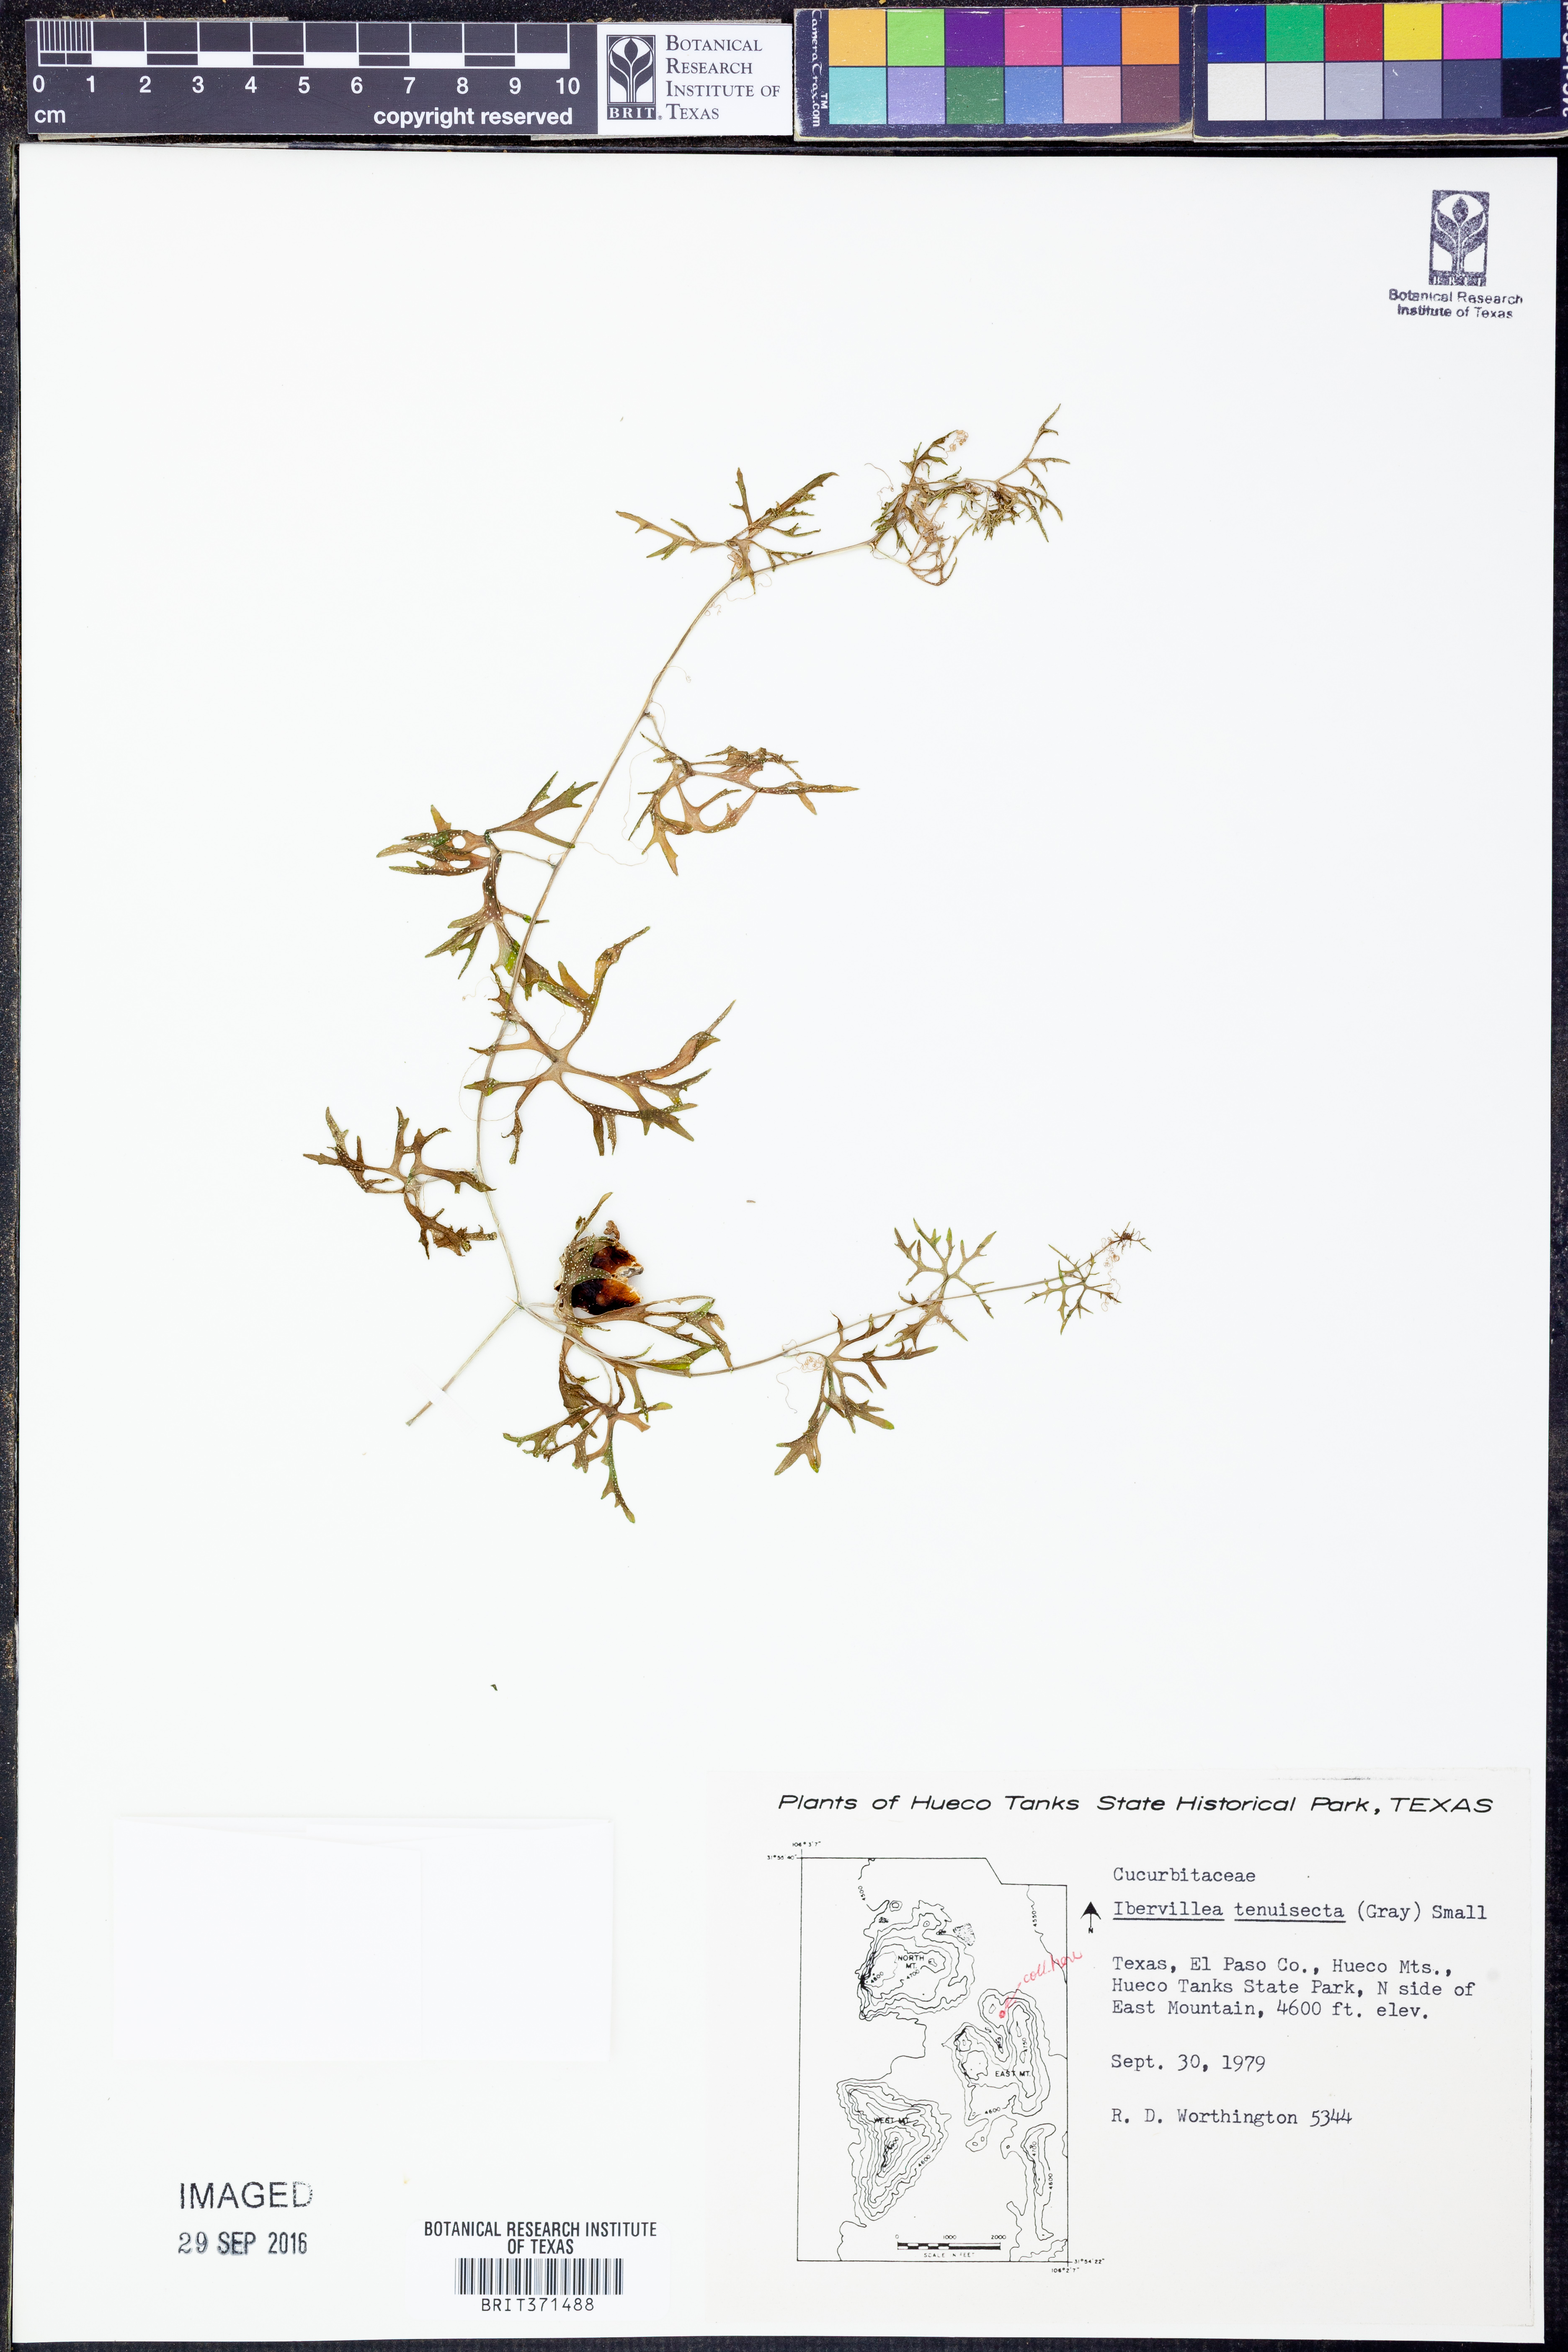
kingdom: Plantae
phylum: Tracheophyta
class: Magnoliopsida
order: Cucurbitales
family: Cucurbitaceae
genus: Ibervillea
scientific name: Ibervillea tenuisecta
